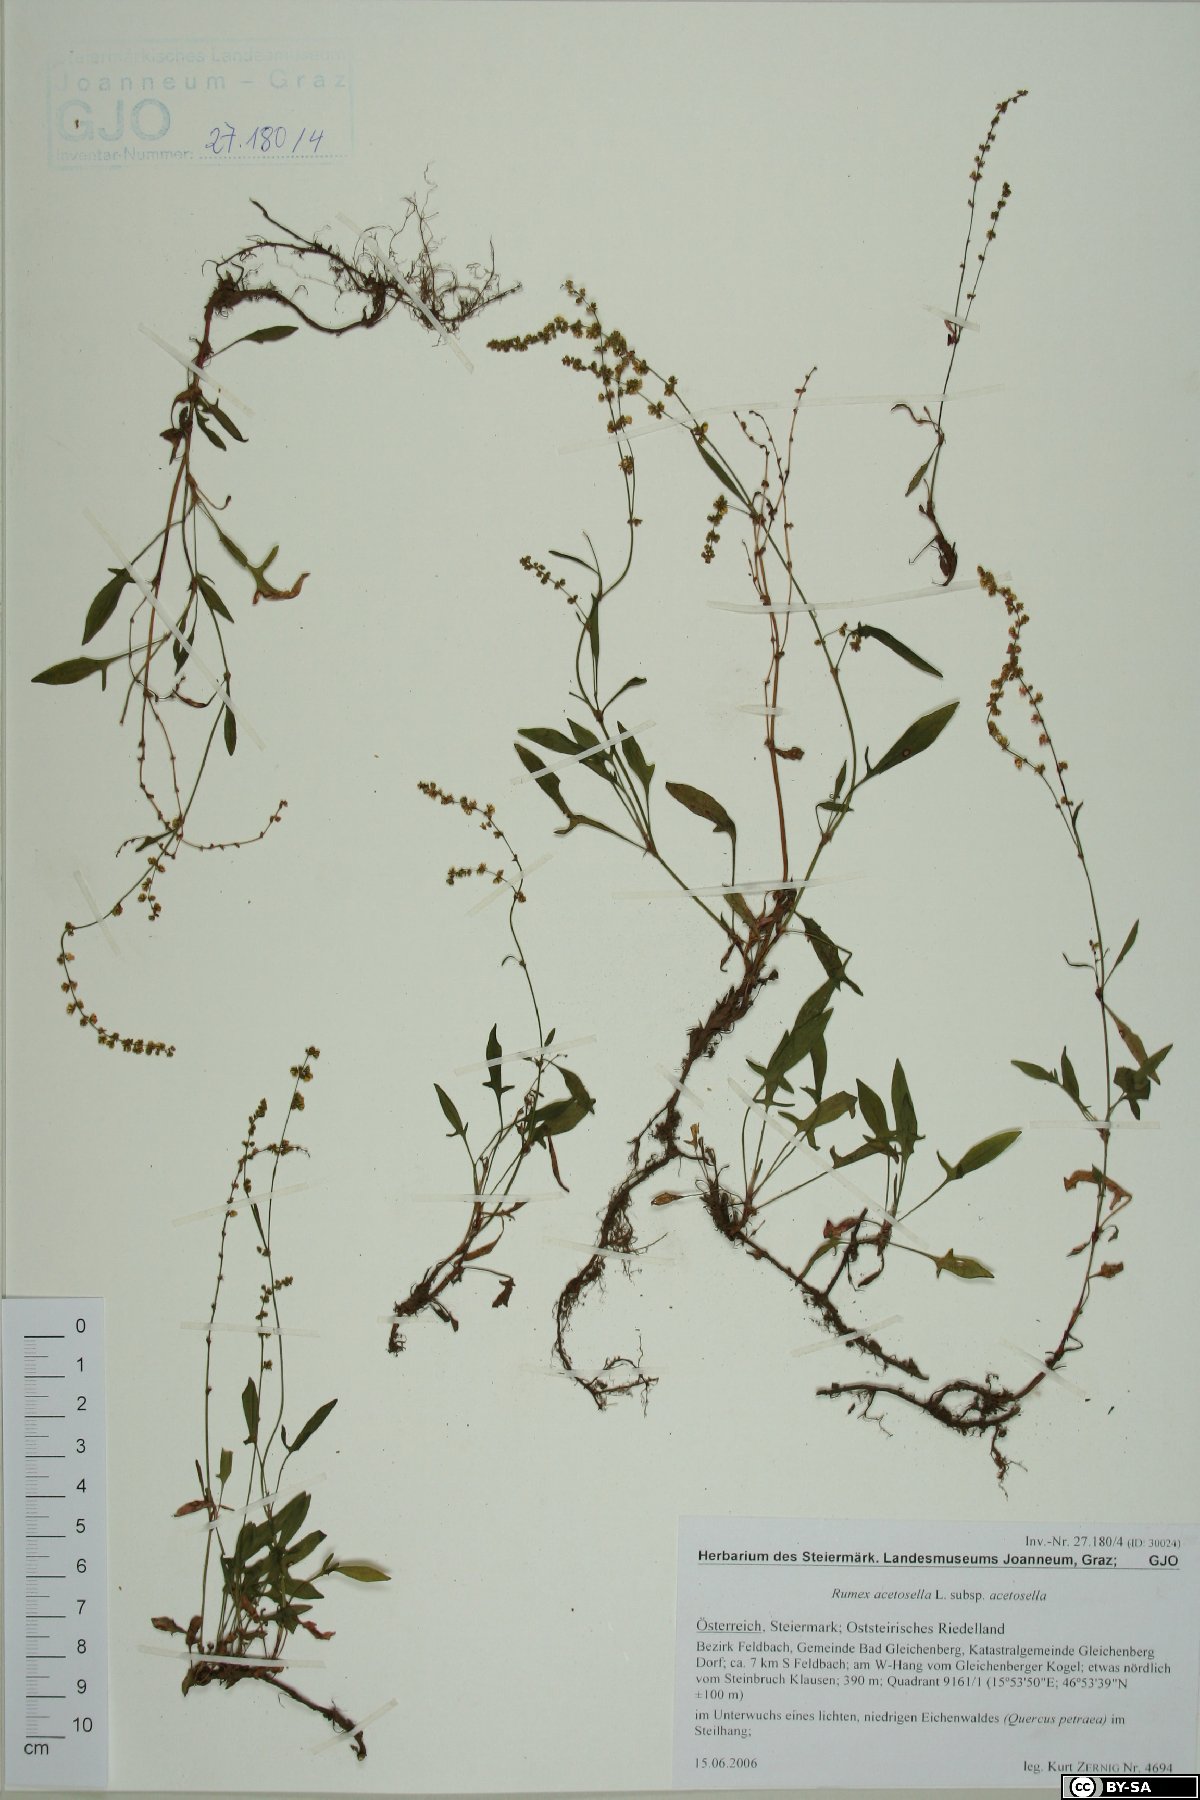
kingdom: Plantae
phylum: Tracheophyta
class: Magnoliopsida
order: Caryophyllales
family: Polygonaceae
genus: Rumex
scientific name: Rumex acetosella
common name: Common sheep sorrel
